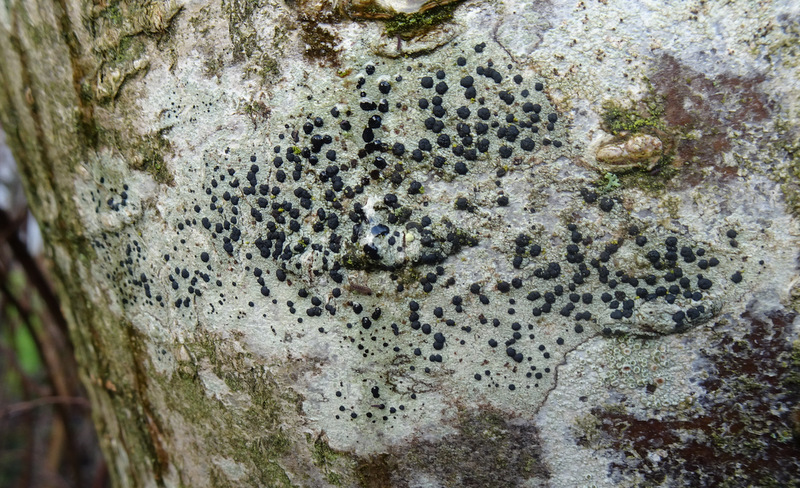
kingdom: Fungi
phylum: Ascomycota
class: Lecanoromycetes
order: Lecanorales
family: Lecanoraceae
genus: Lecidella
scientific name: Lecidella elaeochroma
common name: grågrøn skivelav
